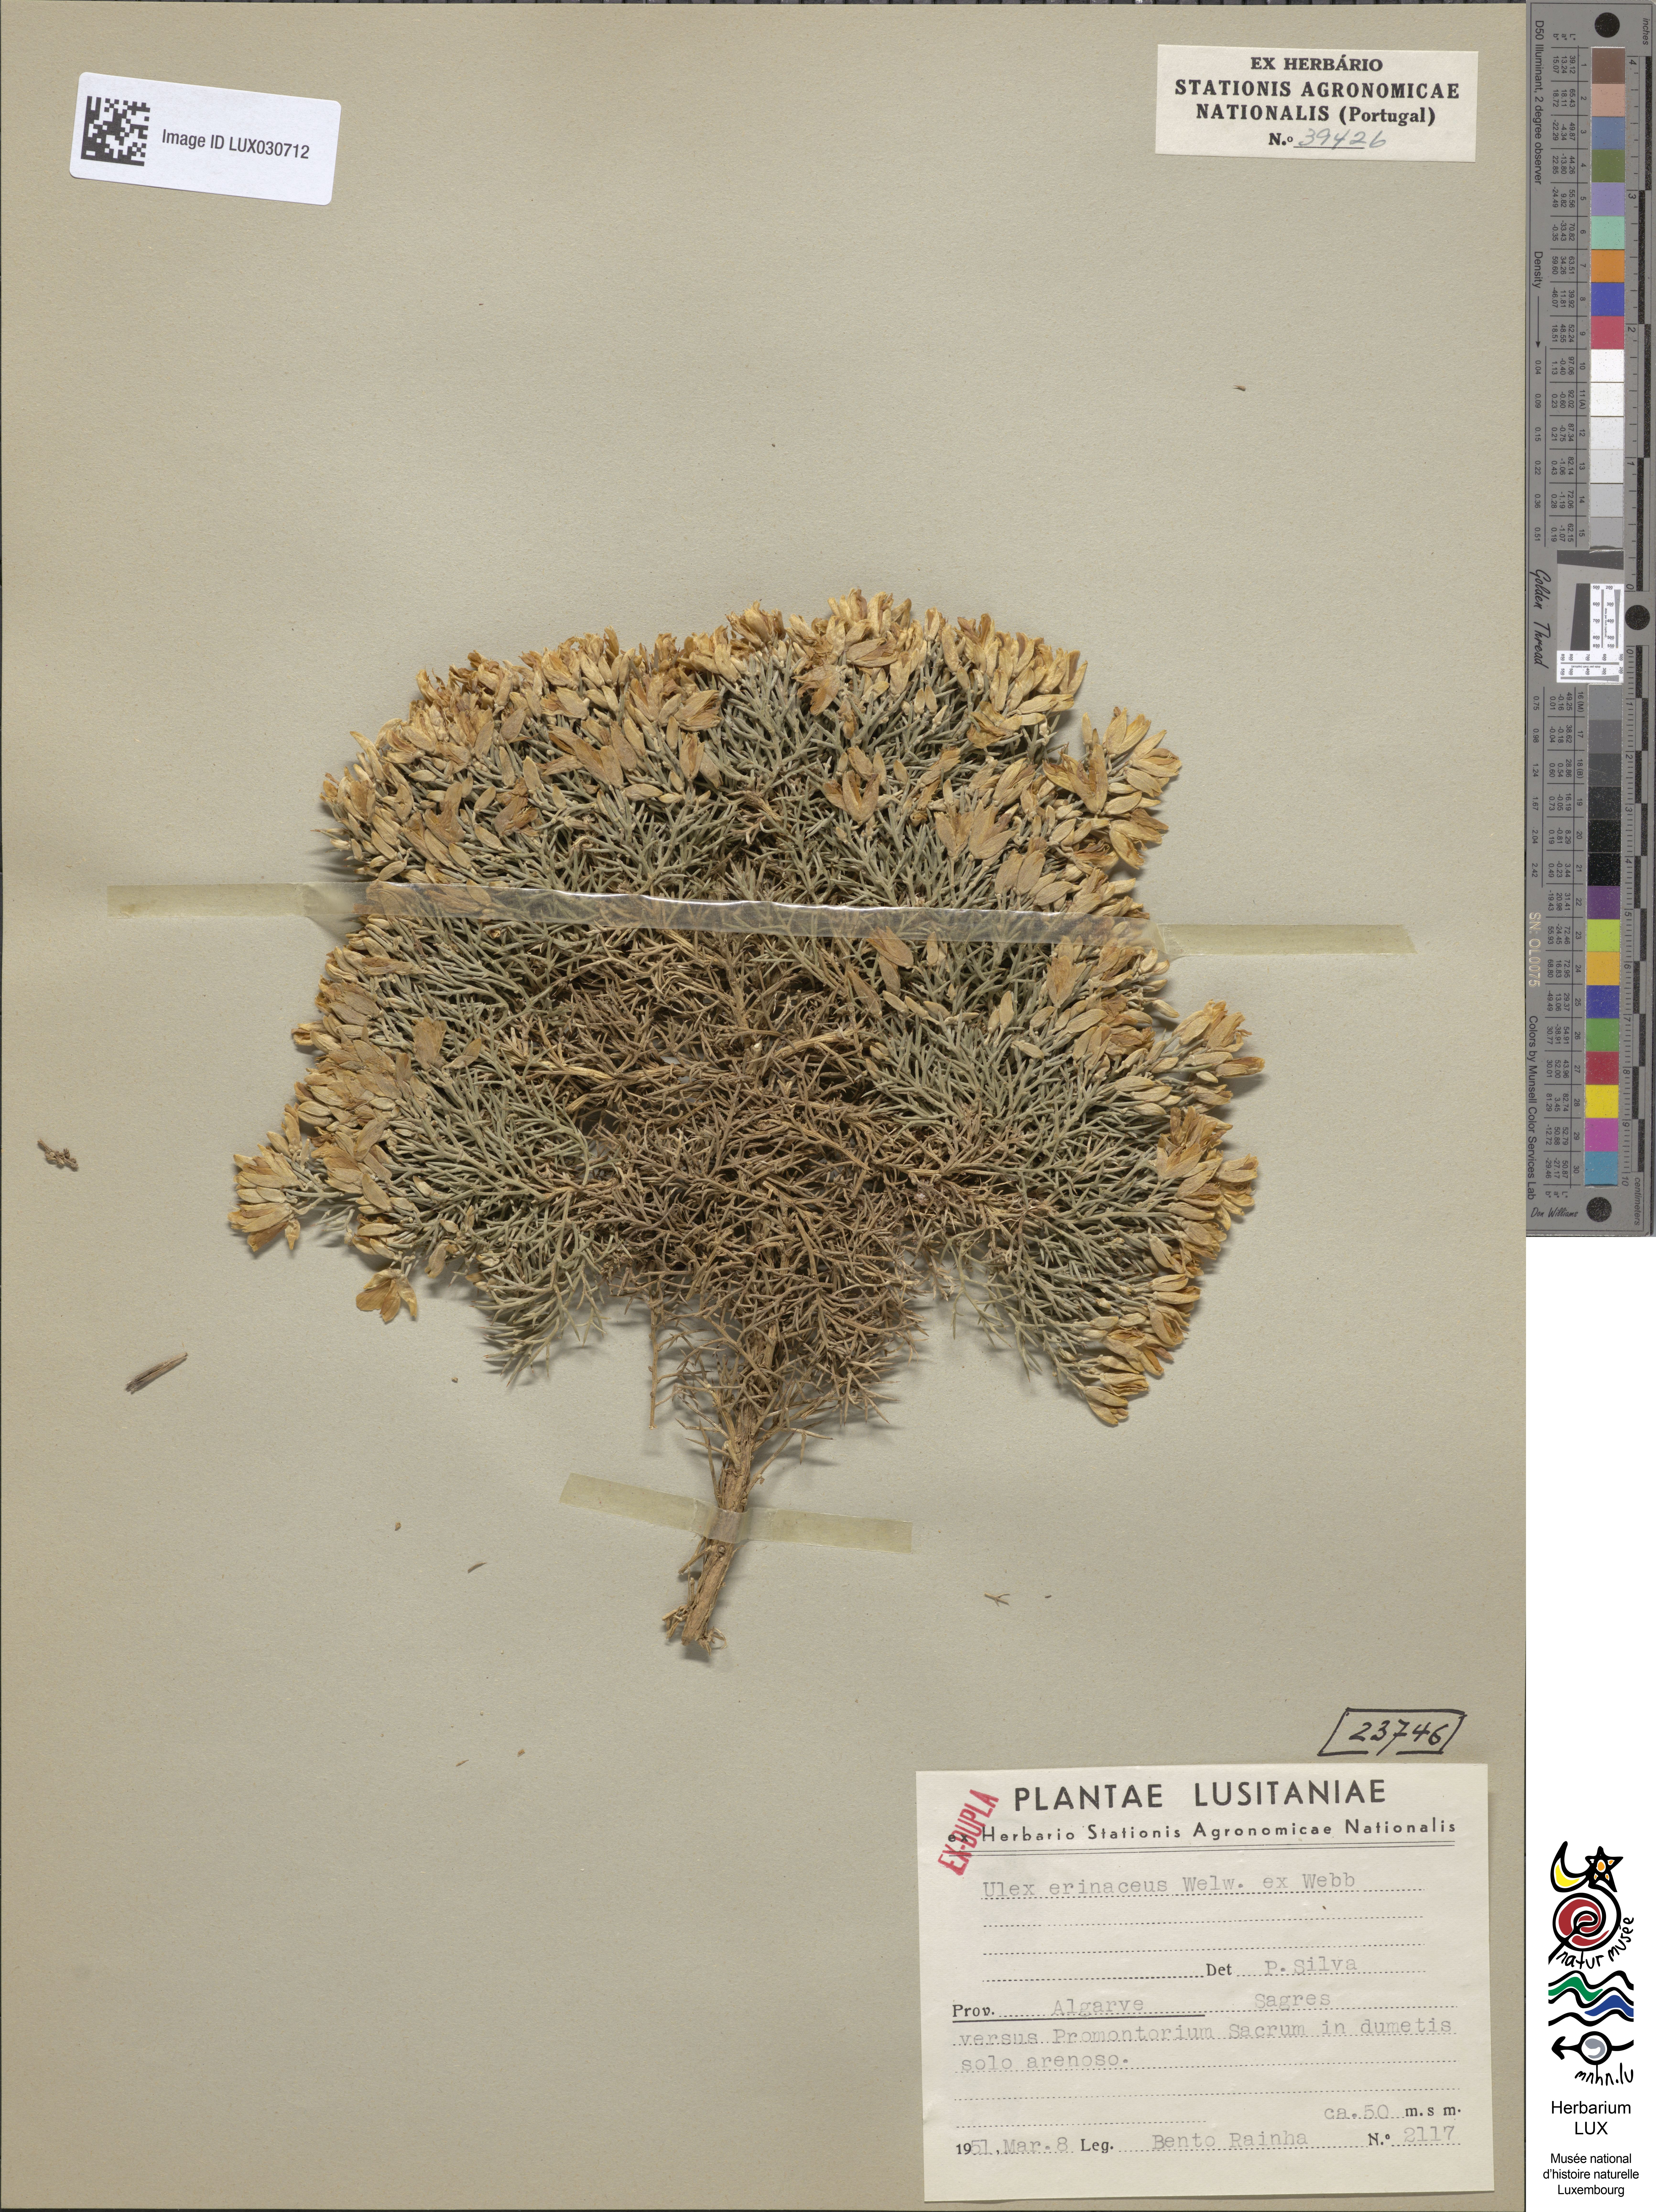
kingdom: Plantae
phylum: Tracheophyta
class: Magnoliopsida
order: Fabales
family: Fabaceae
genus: Ulex
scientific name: Ulex erinaceus
